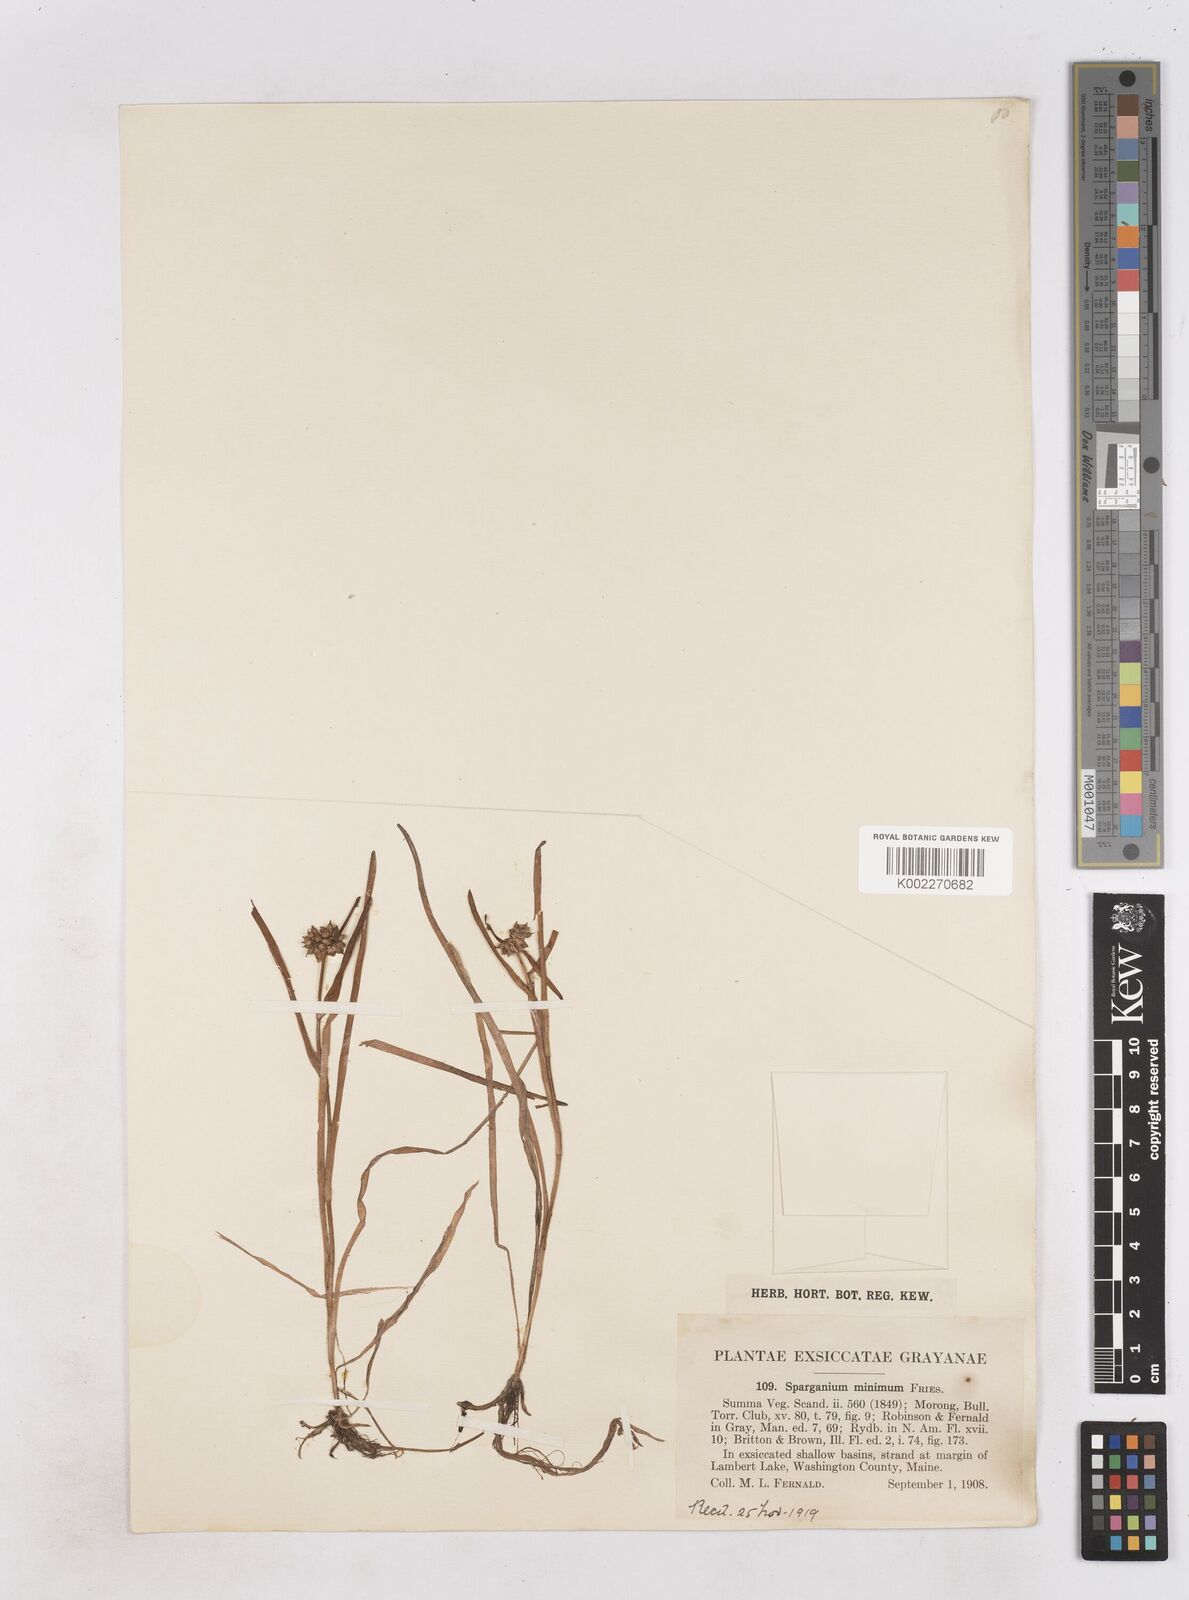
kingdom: Plantae
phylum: Tracheophyta
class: Liliopsida
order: Poales
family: Typhaceae
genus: Sparganium
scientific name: Sparganium natans
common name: Least bur-reed
